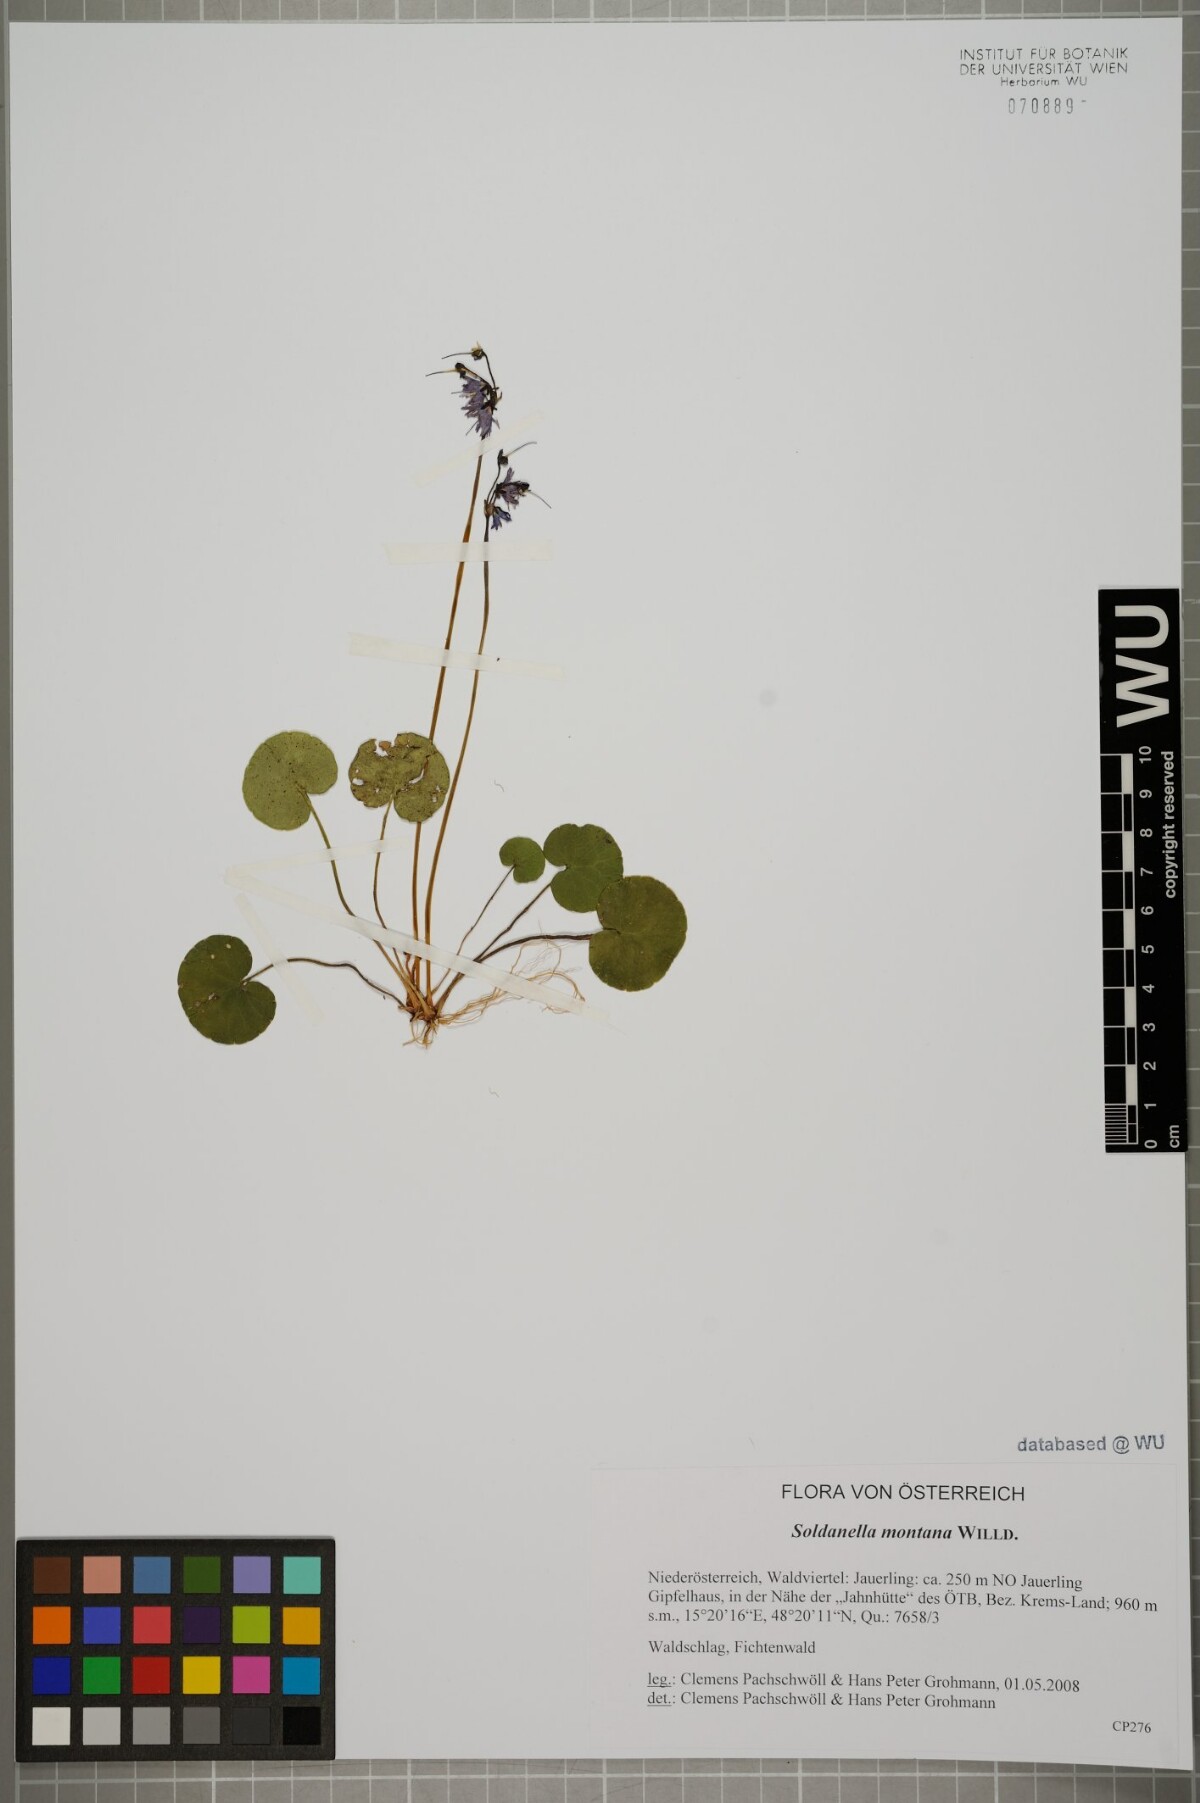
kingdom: Plantae
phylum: Tracheophyta
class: Magnoliopsida
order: Ericales
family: Primulaceae
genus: Soldanella
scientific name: Soldanella montana
